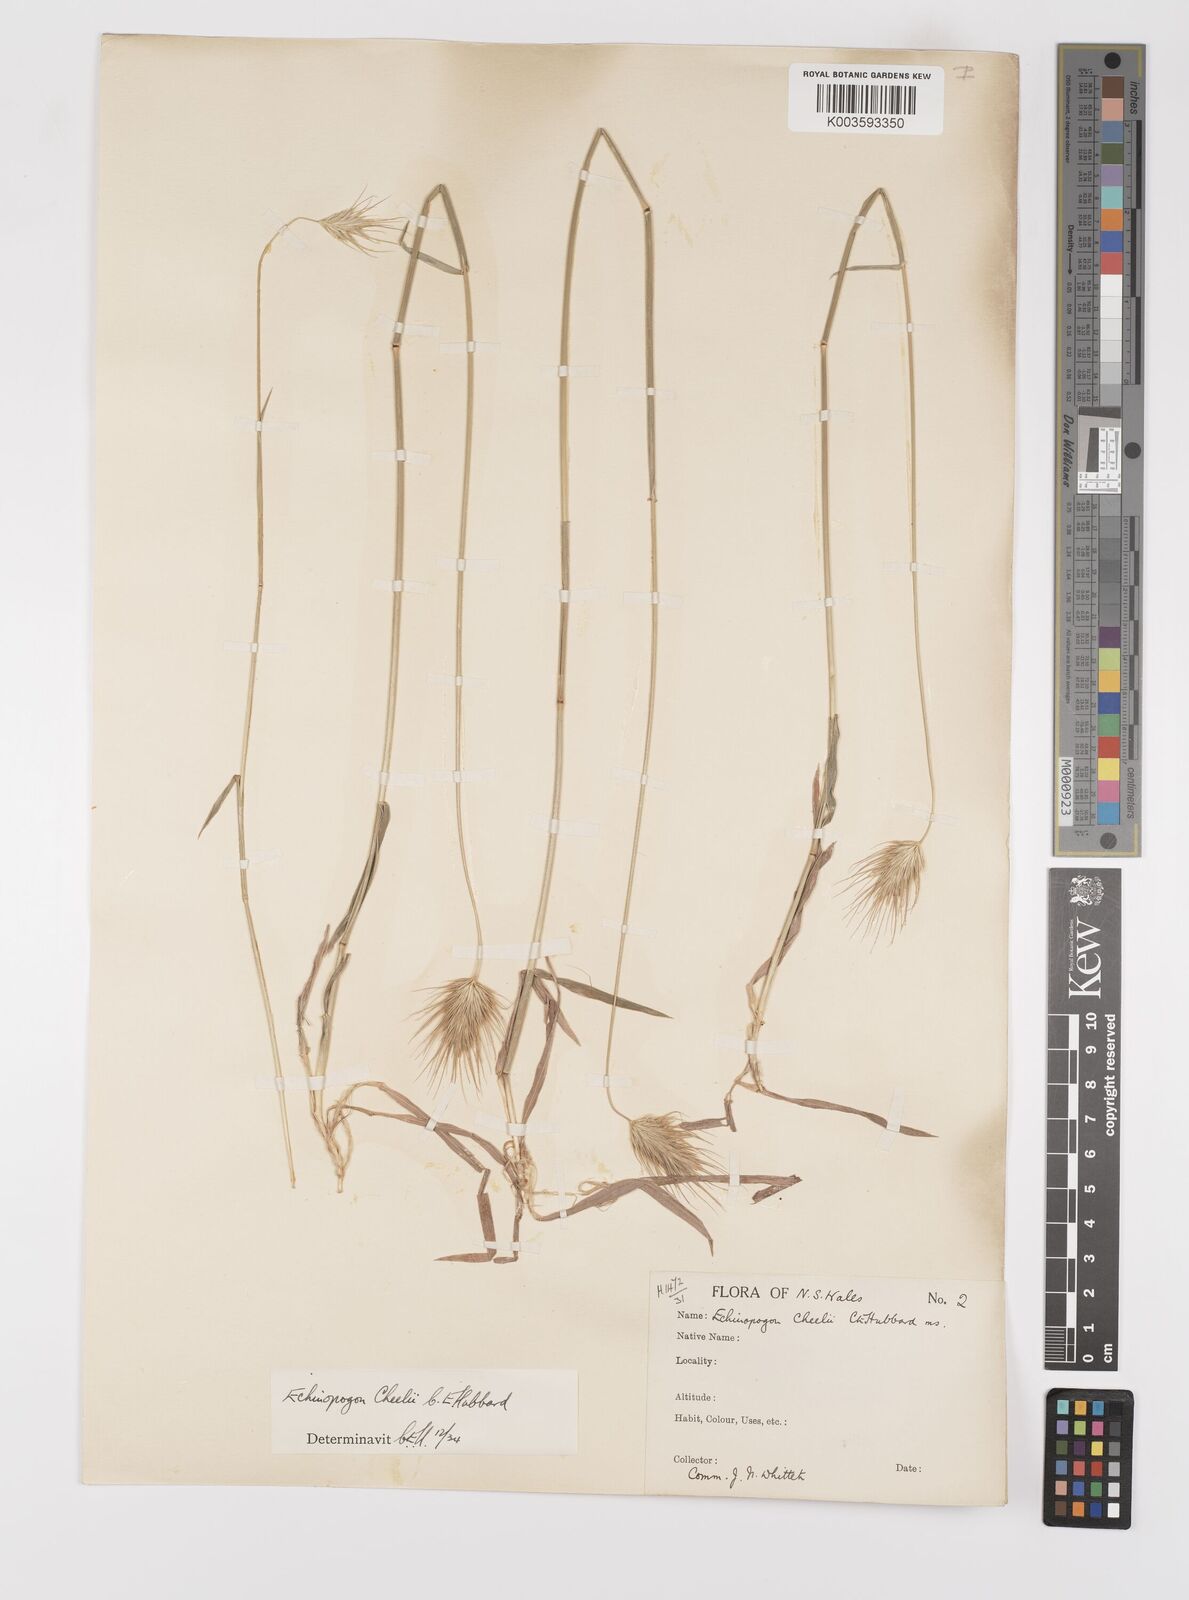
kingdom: Plantae
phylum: Tracheophyta
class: Liliopsida
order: Poales
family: Poaceae
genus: Echinopogon
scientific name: Echinopogon cheelii
